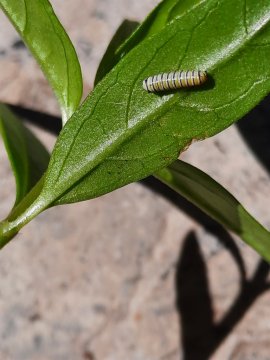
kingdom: Animalia
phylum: Arthropoda
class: Insecta
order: Lepidoptera
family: Nymphalidae
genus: Danaus
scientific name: Danaus plexippus
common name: Monarch
